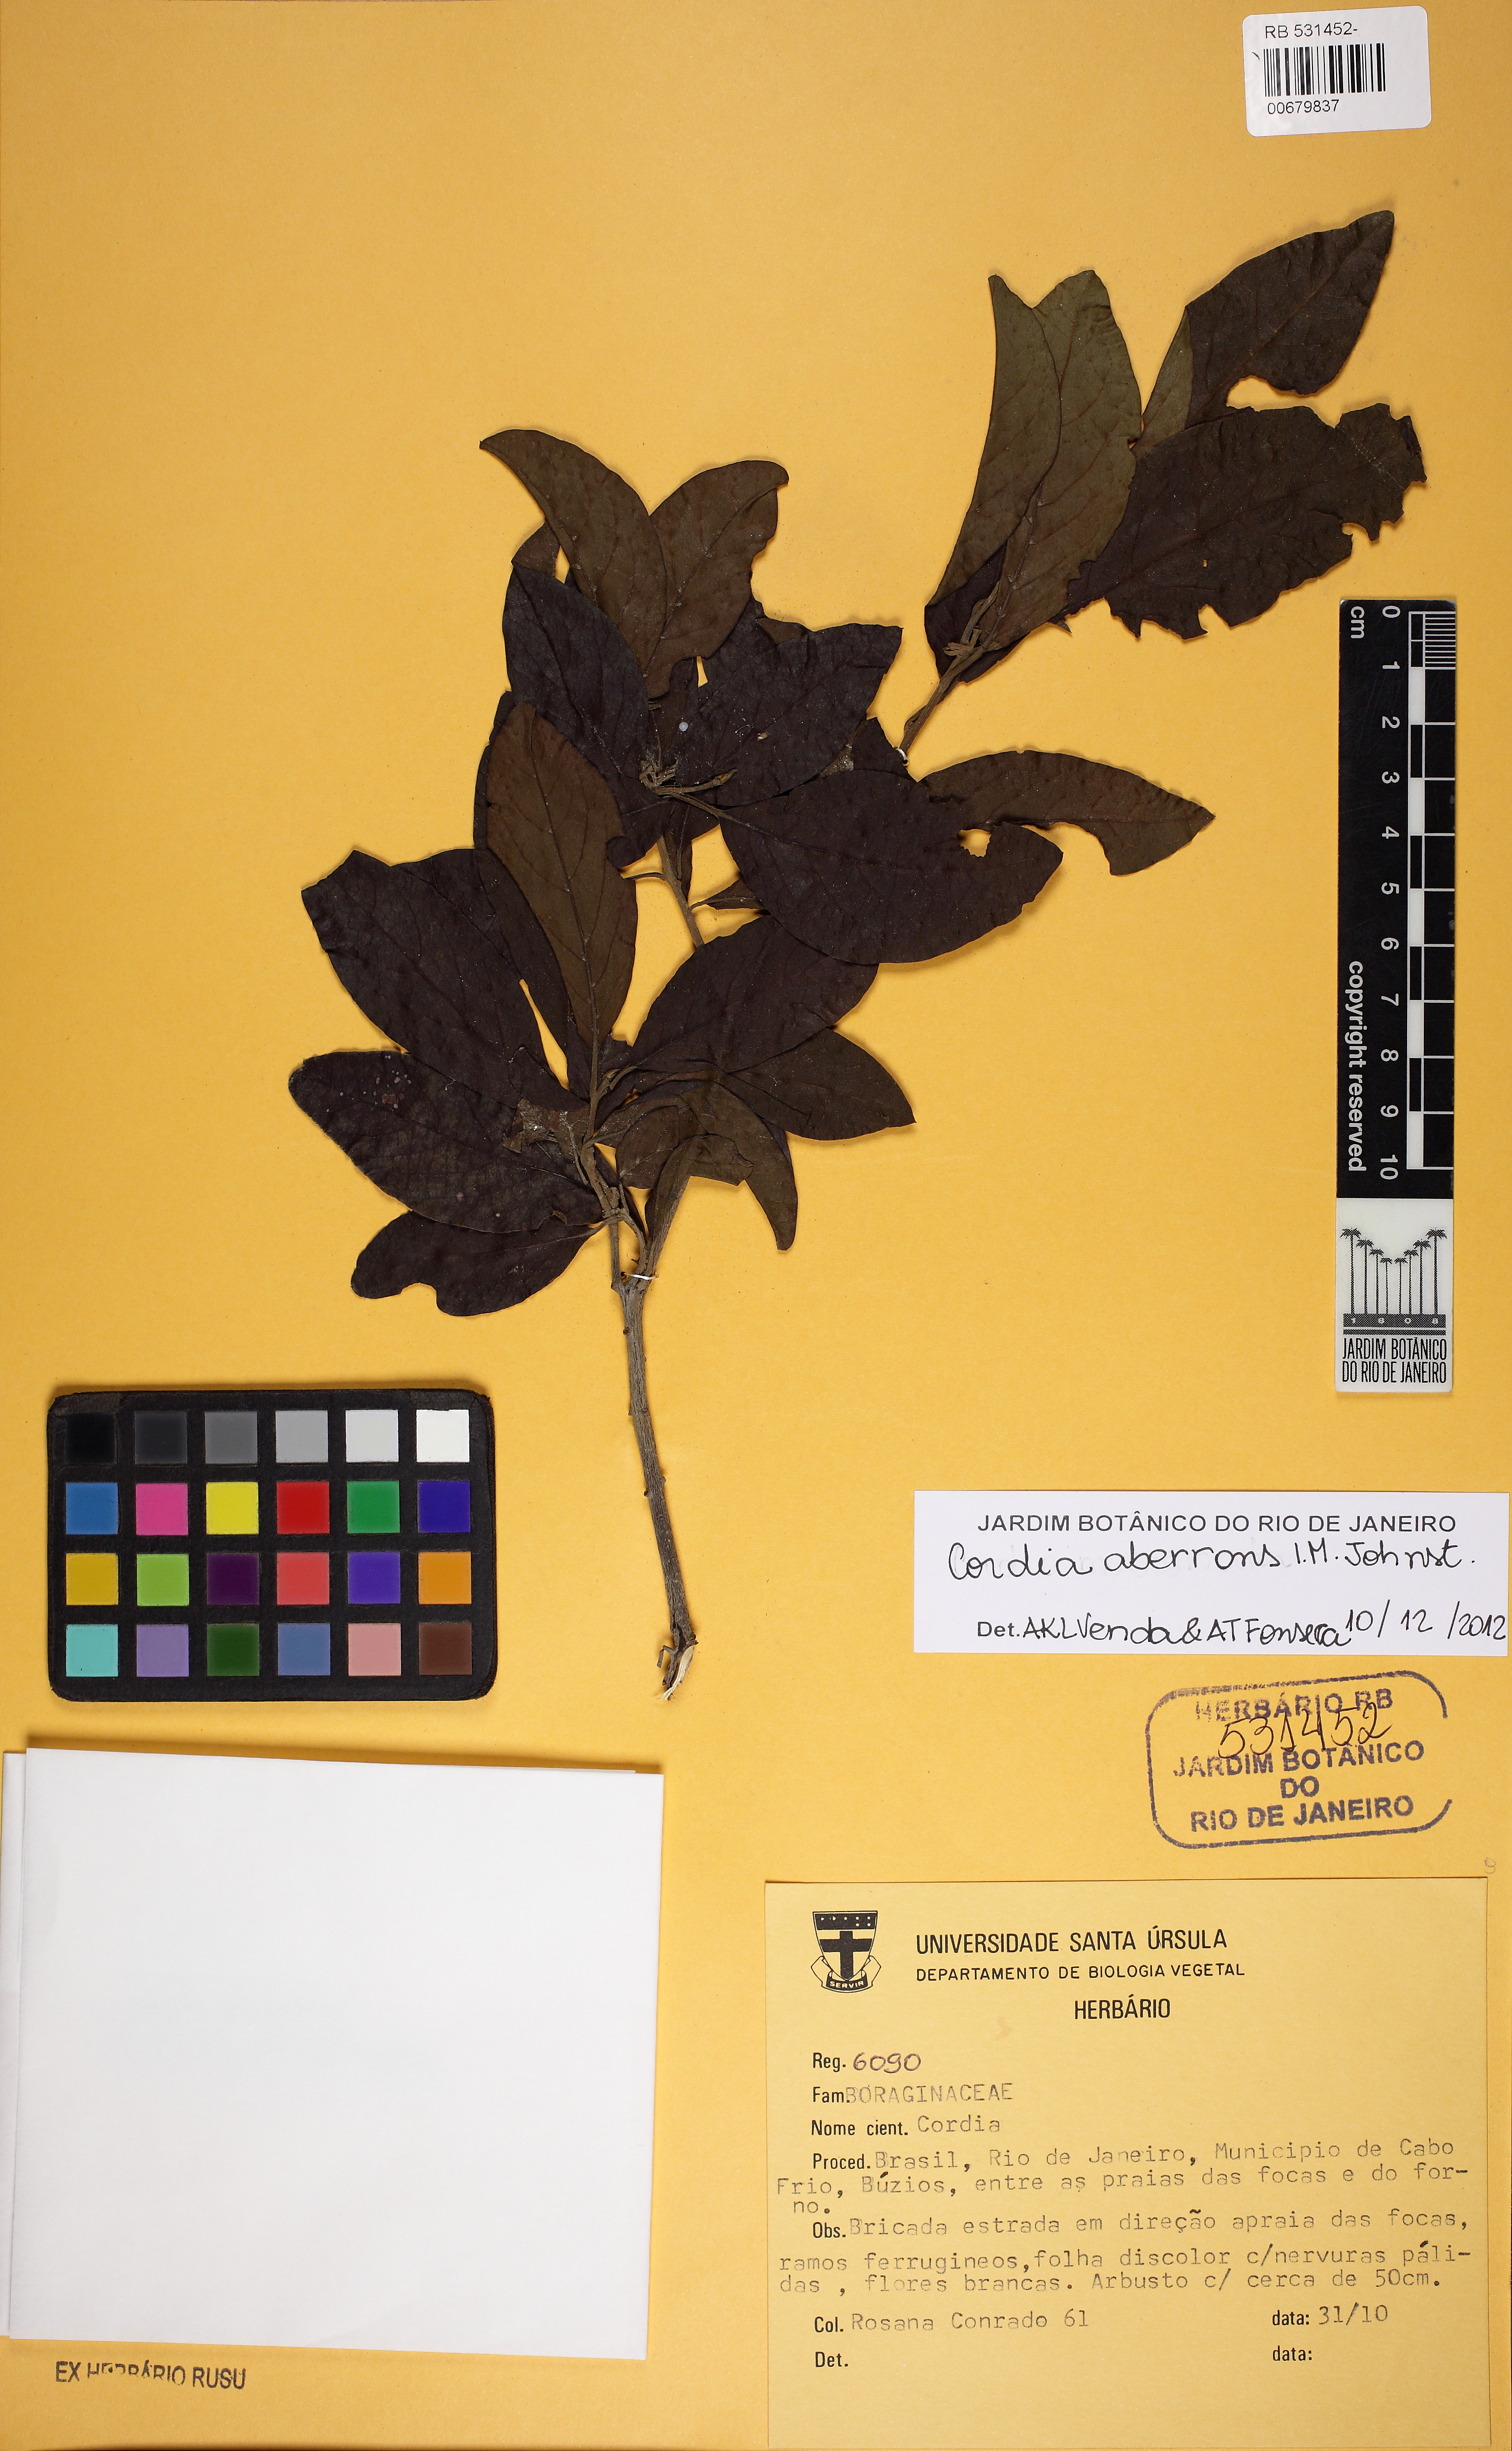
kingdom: Plantae
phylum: Tracheophyta
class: Magnoliopsida
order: Boraginales
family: Cordiaceae
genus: Cordia
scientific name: Cordia aberrans
